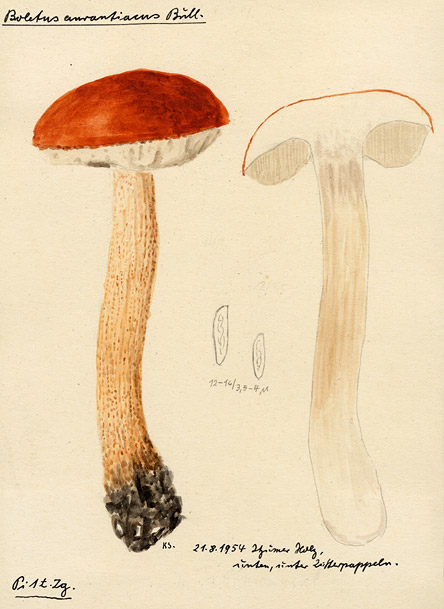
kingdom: Fungi
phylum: Basidiomycota
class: Agaricomycetes
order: Boletales
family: Boletaceae
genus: Leccinum
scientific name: Leccinum aurantiacum
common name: Orange bolete
